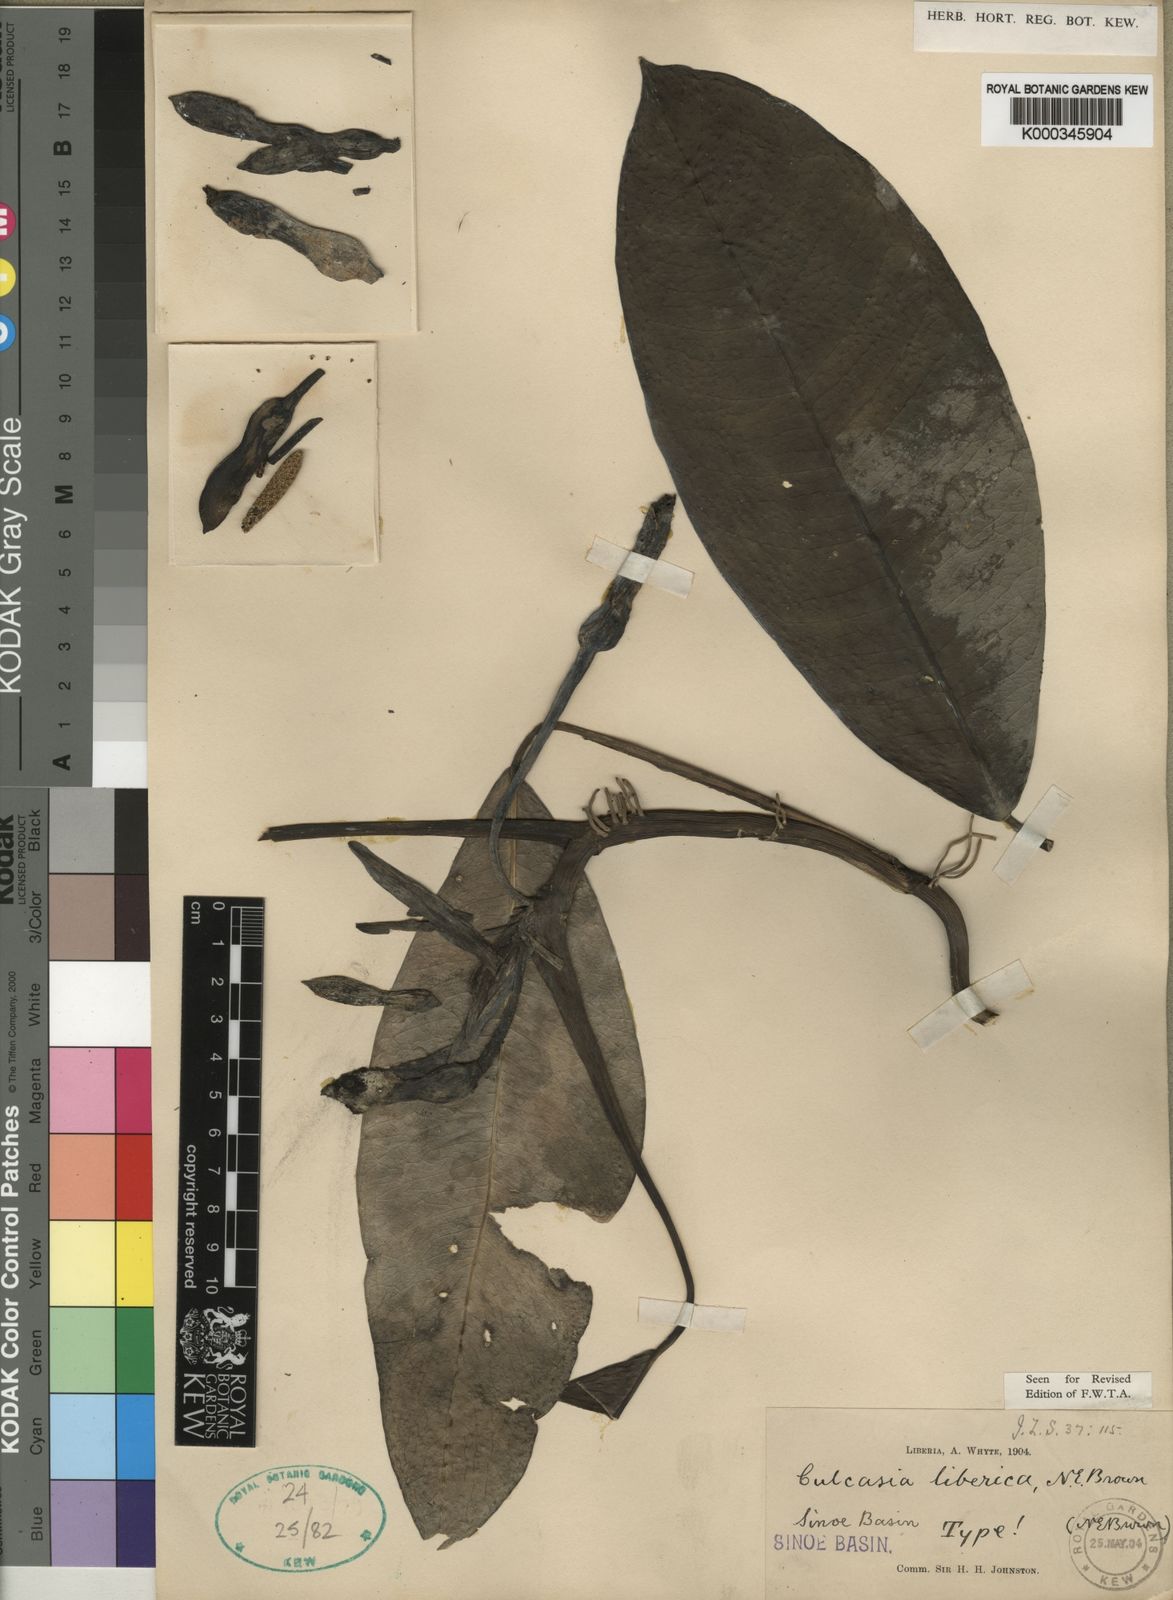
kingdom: Plantae
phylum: Tracheophyta
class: Liliopsida
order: Alismatales
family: Araceae
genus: Culcasia
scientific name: Culcasia liberica
